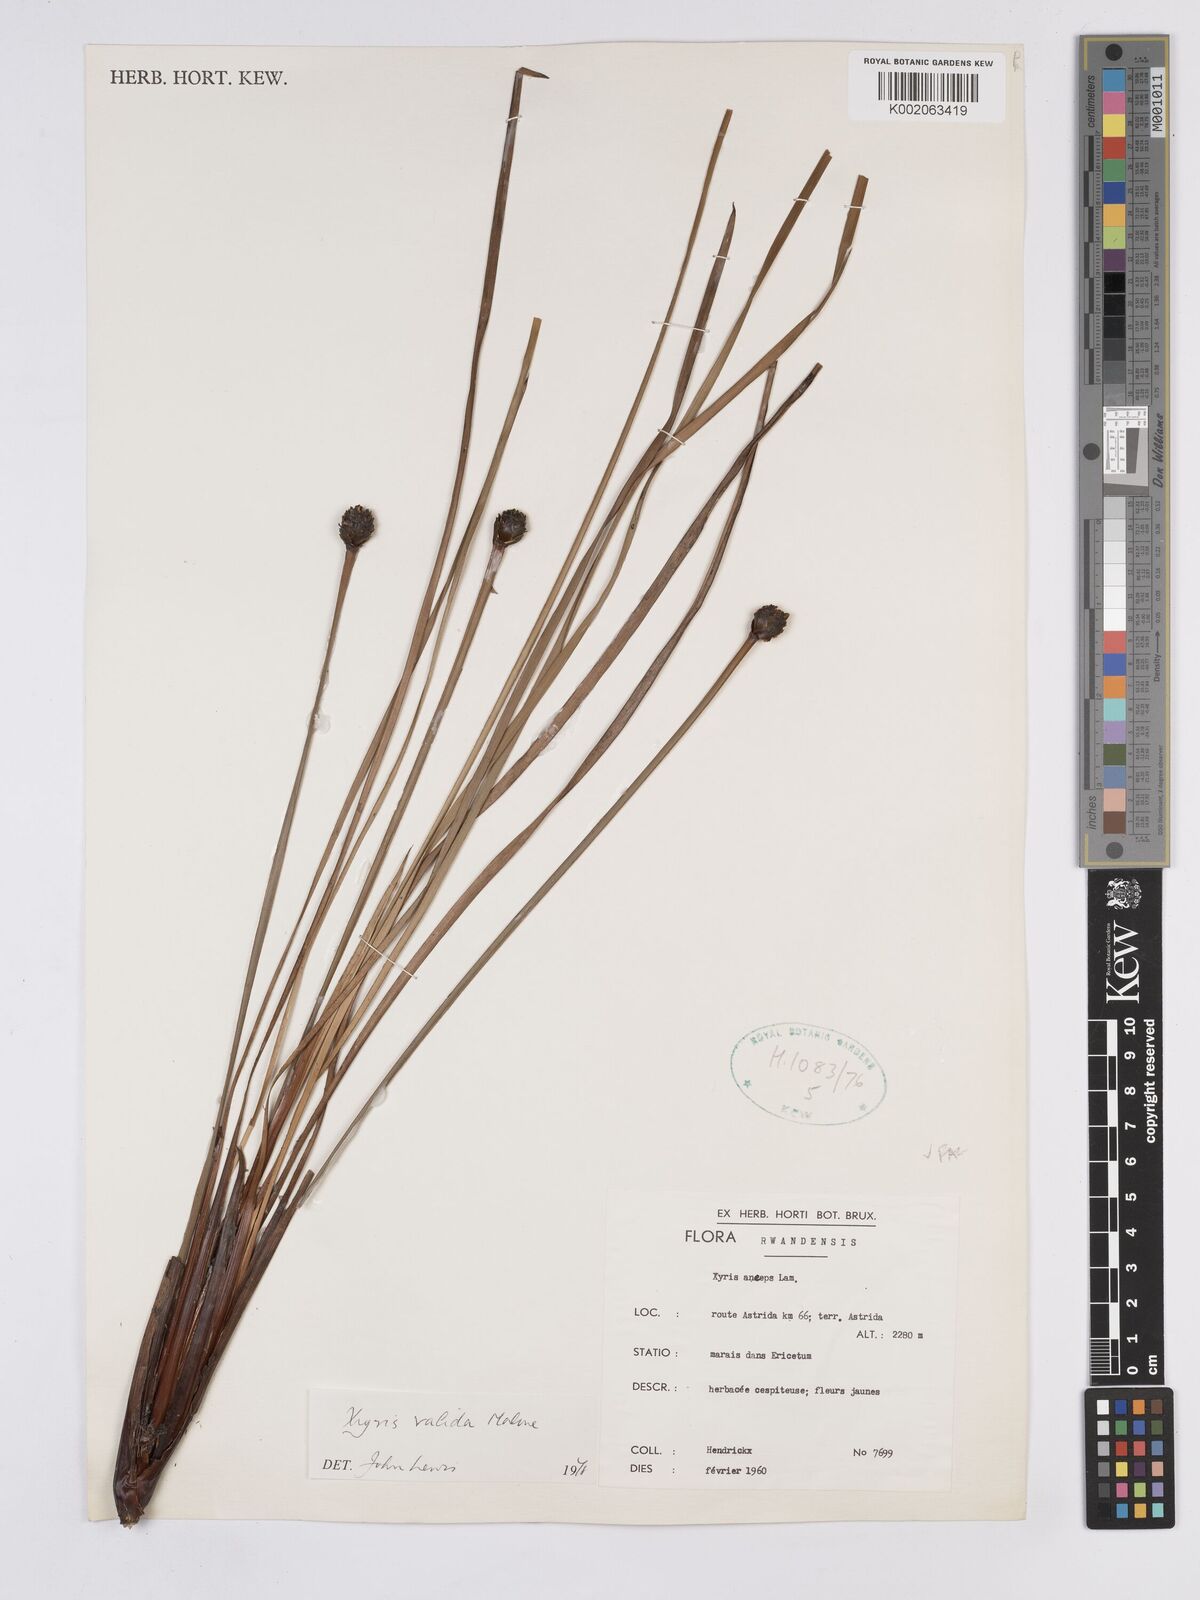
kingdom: Plantae
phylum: Tracheophyta
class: Liliopsida
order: Poales
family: Xyridaceae
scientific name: Xyridaceae
